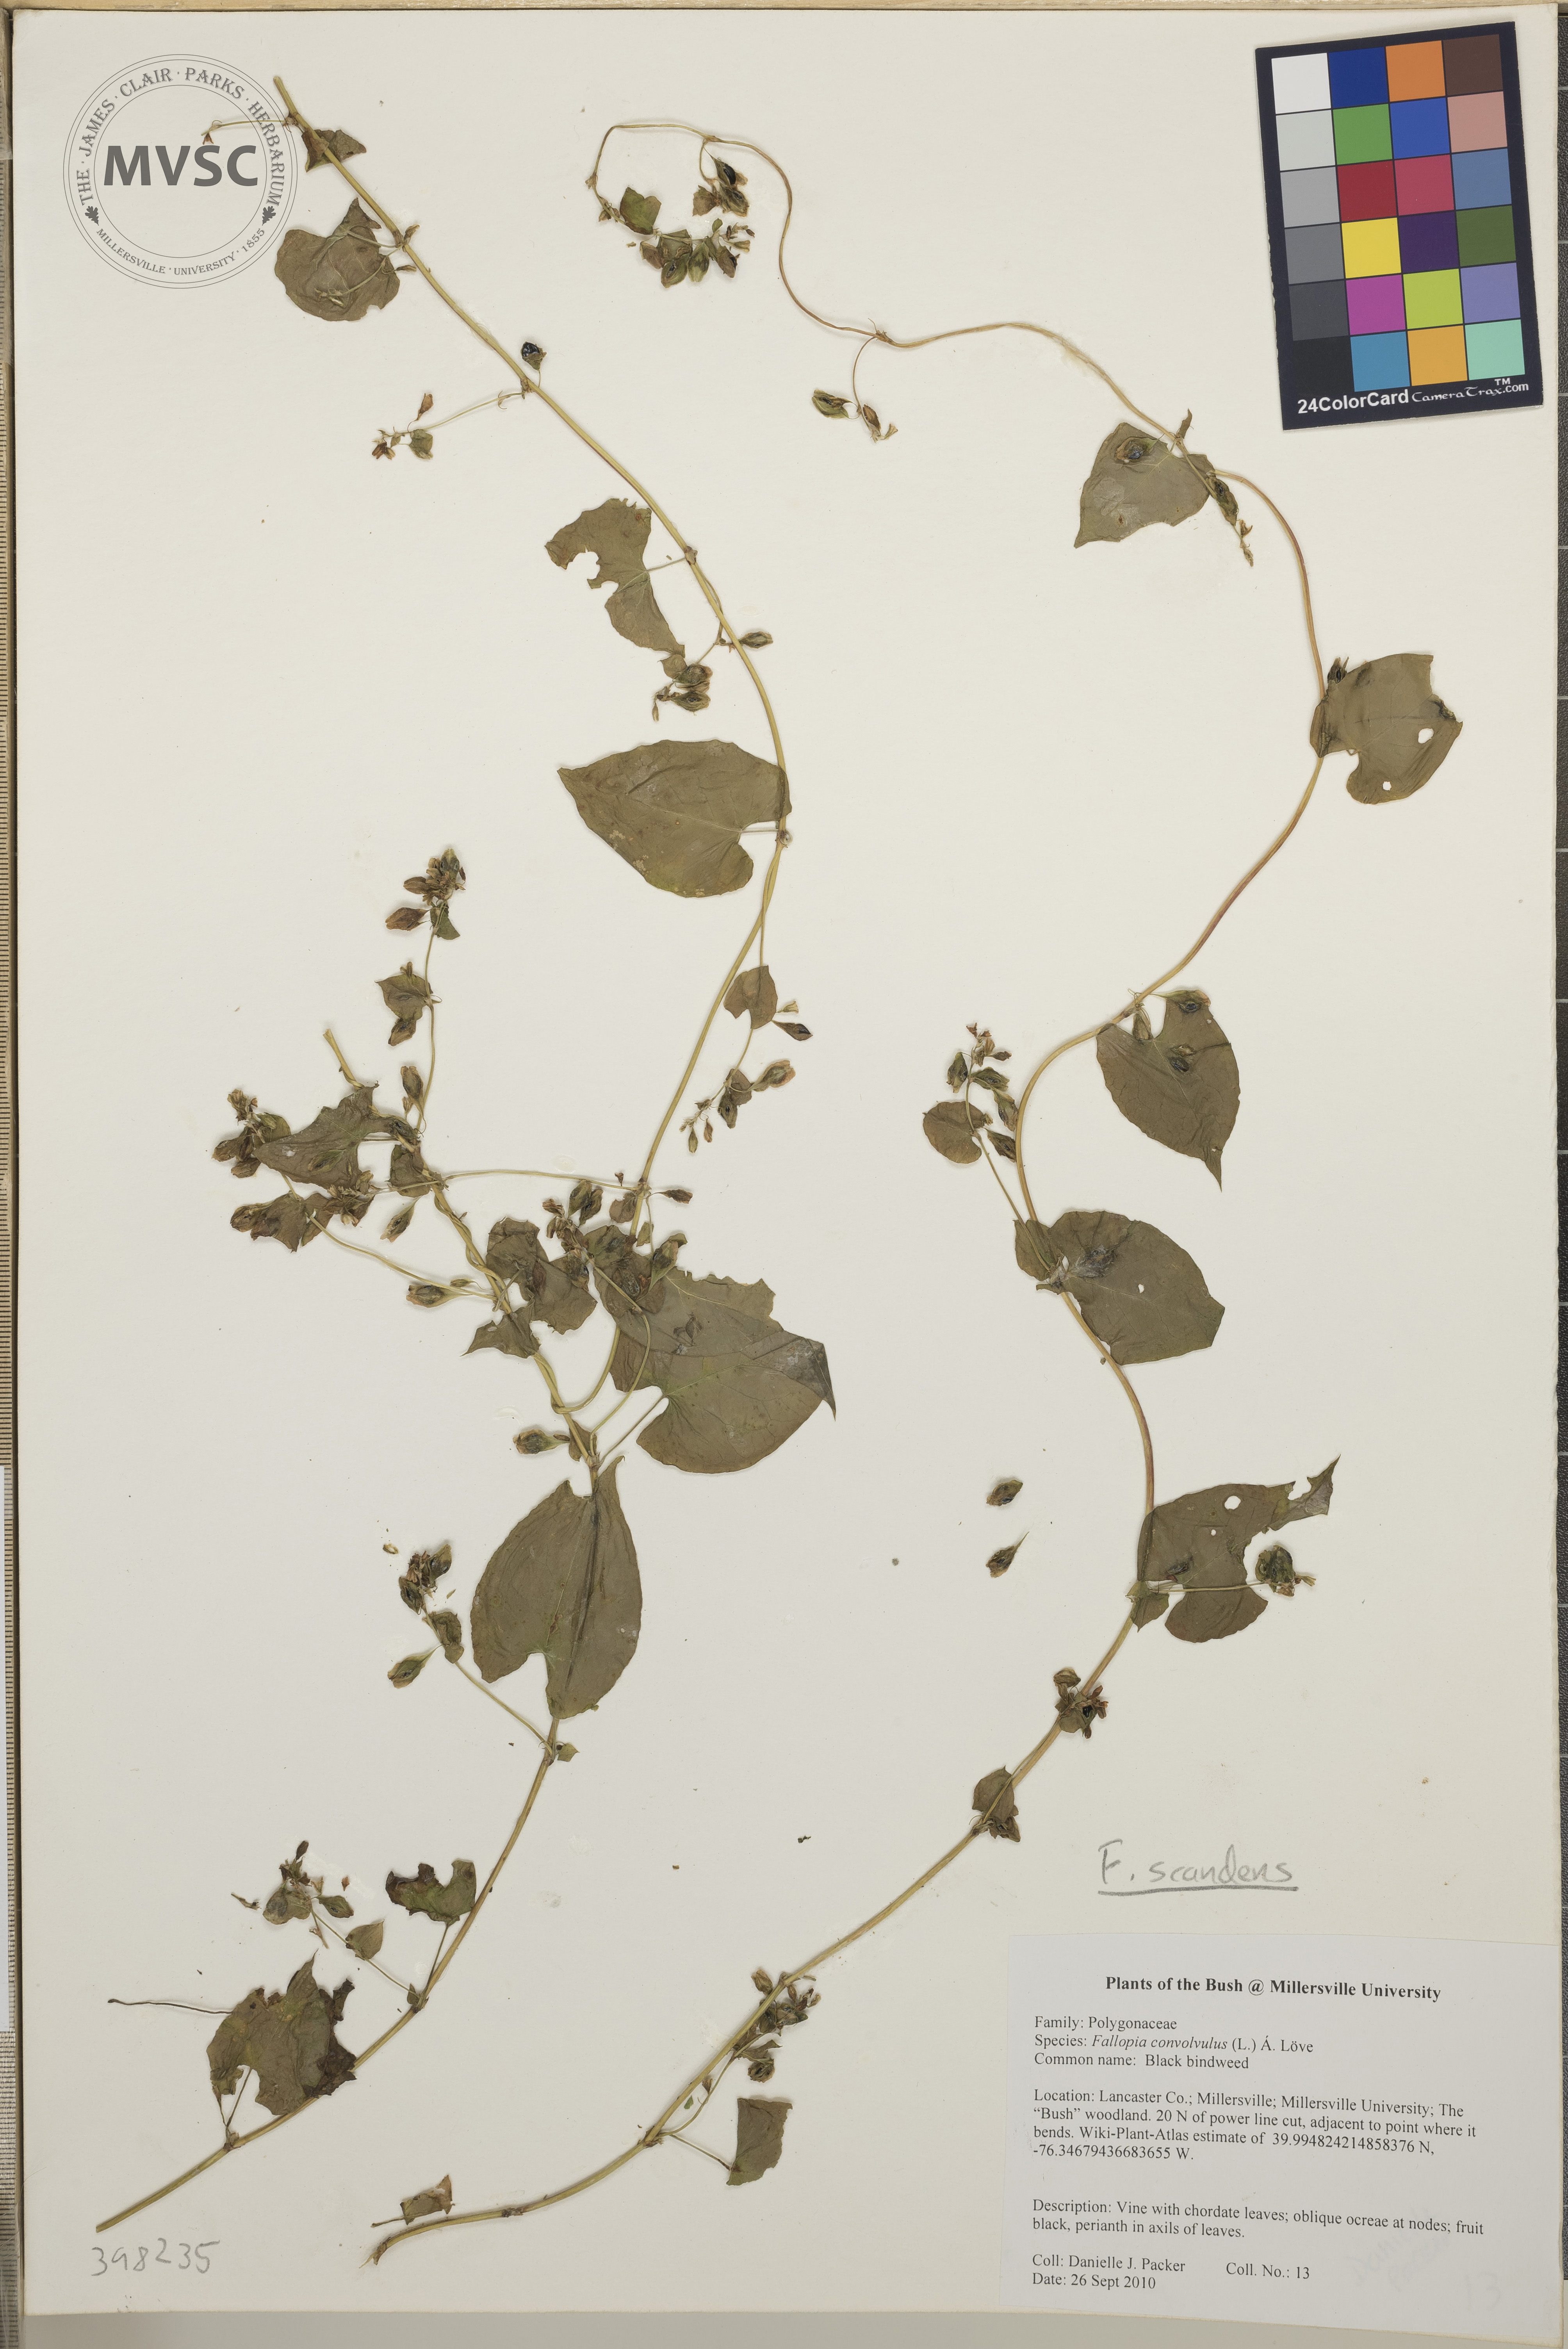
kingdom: Plantae
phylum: Tracheophyta
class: Magnoliopsida
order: Caryophyllales
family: Polygonaceae
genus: Fallopia
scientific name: Fallopia scandens
